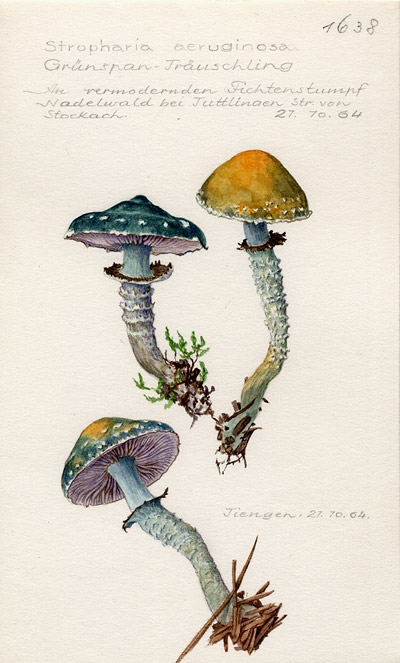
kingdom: Fungi
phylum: Basidiomycota
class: Agaricomycetes
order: Agaricales
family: Strophariaceae
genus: Stropharia
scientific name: Stropharia aeruginosa
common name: Verdigris roundhead
